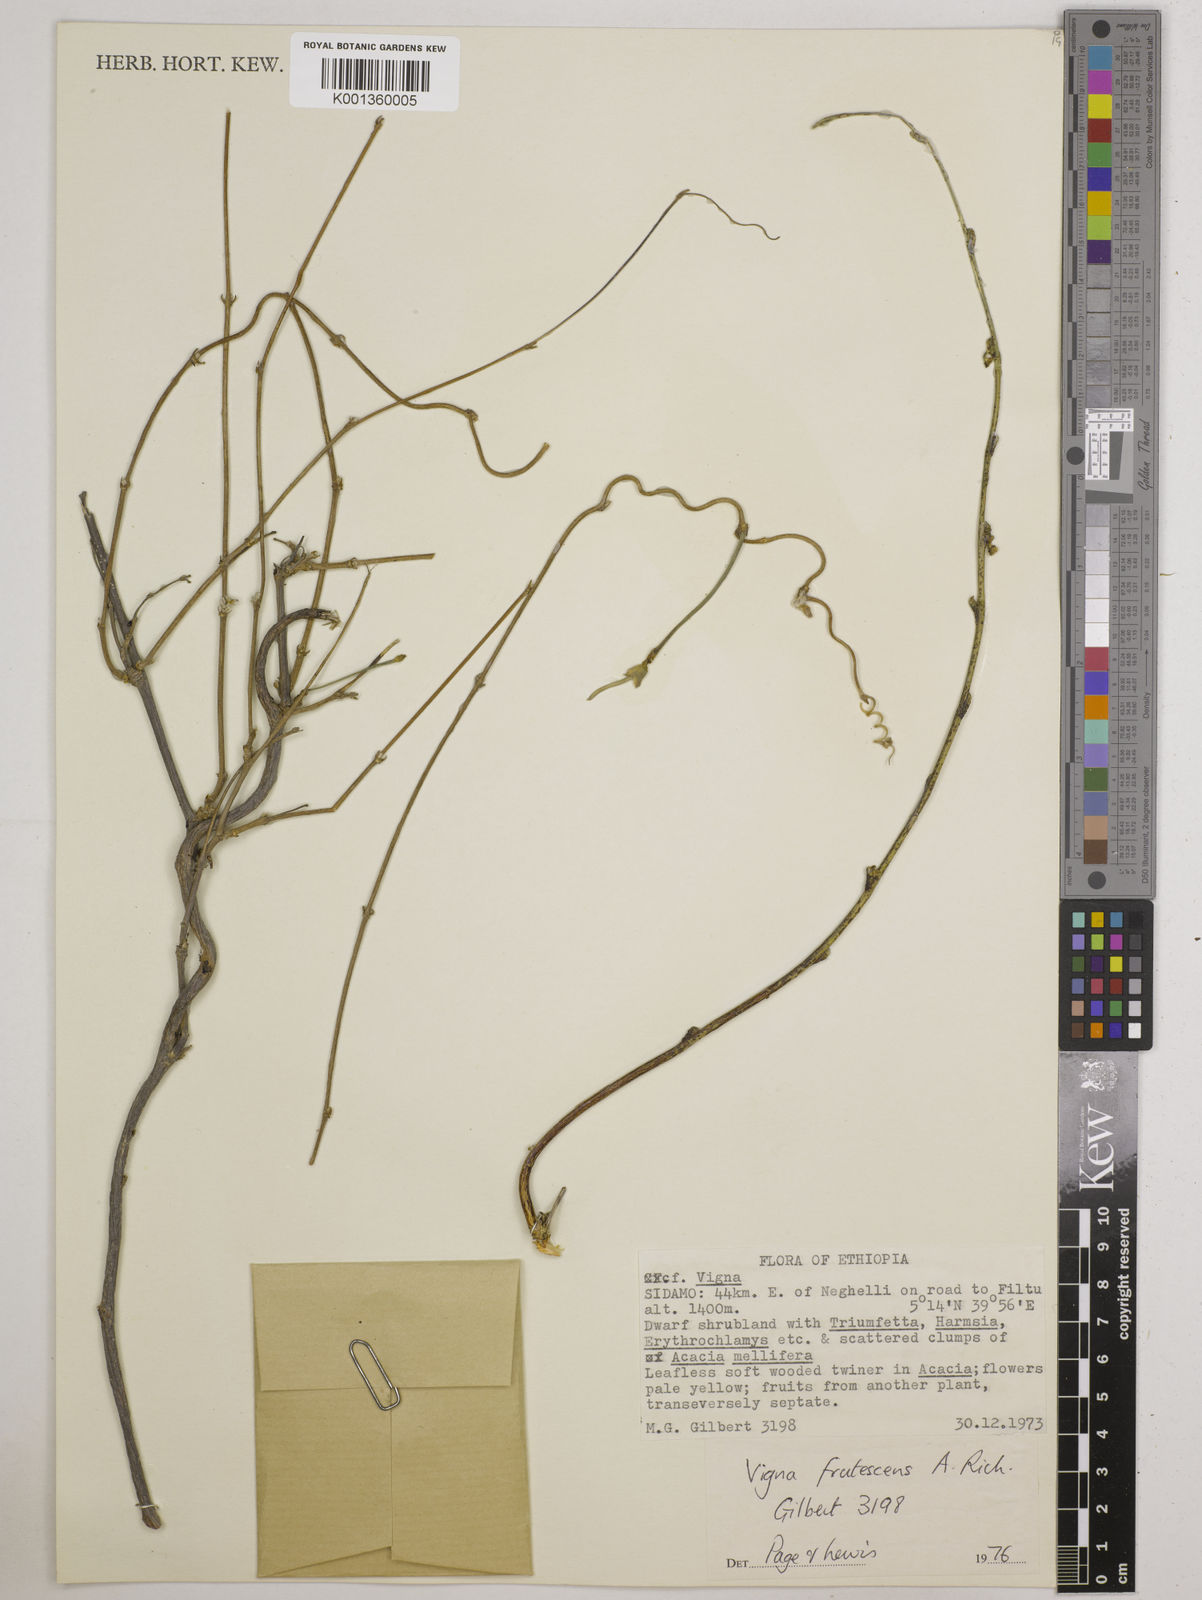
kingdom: Plantae
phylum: Tracheophyta
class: Magnoliopsida
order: Fabales
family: Fabaceae
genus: Vigna
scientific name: Vigna frutescens
